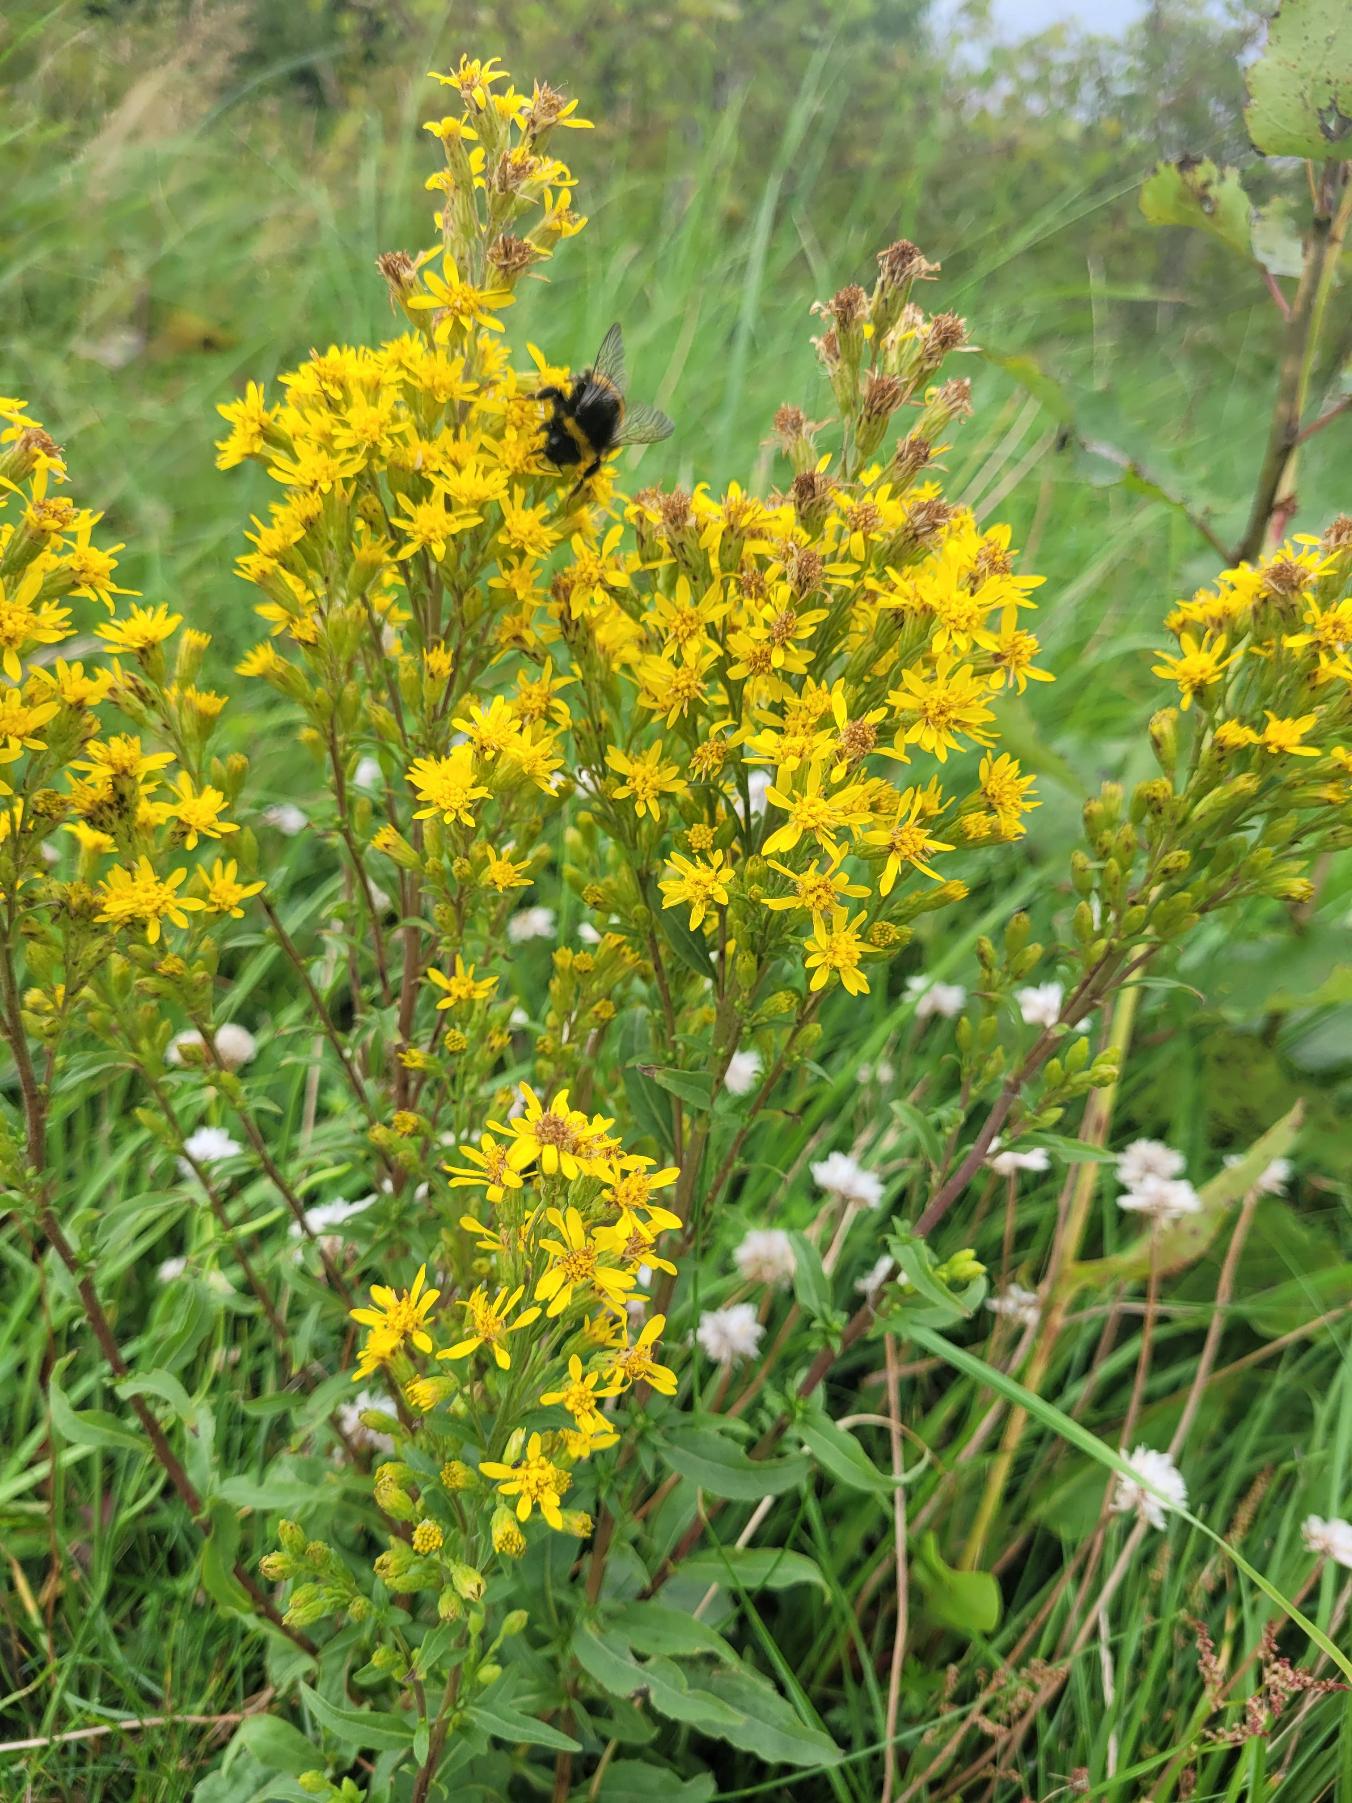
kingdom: Plantae
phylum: Tracheophyta
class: Magnoliopsida
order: Asterales
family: Asteraceae
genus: Solidago
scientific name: Solidago virgaurea
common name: Almindelig gyldenris
